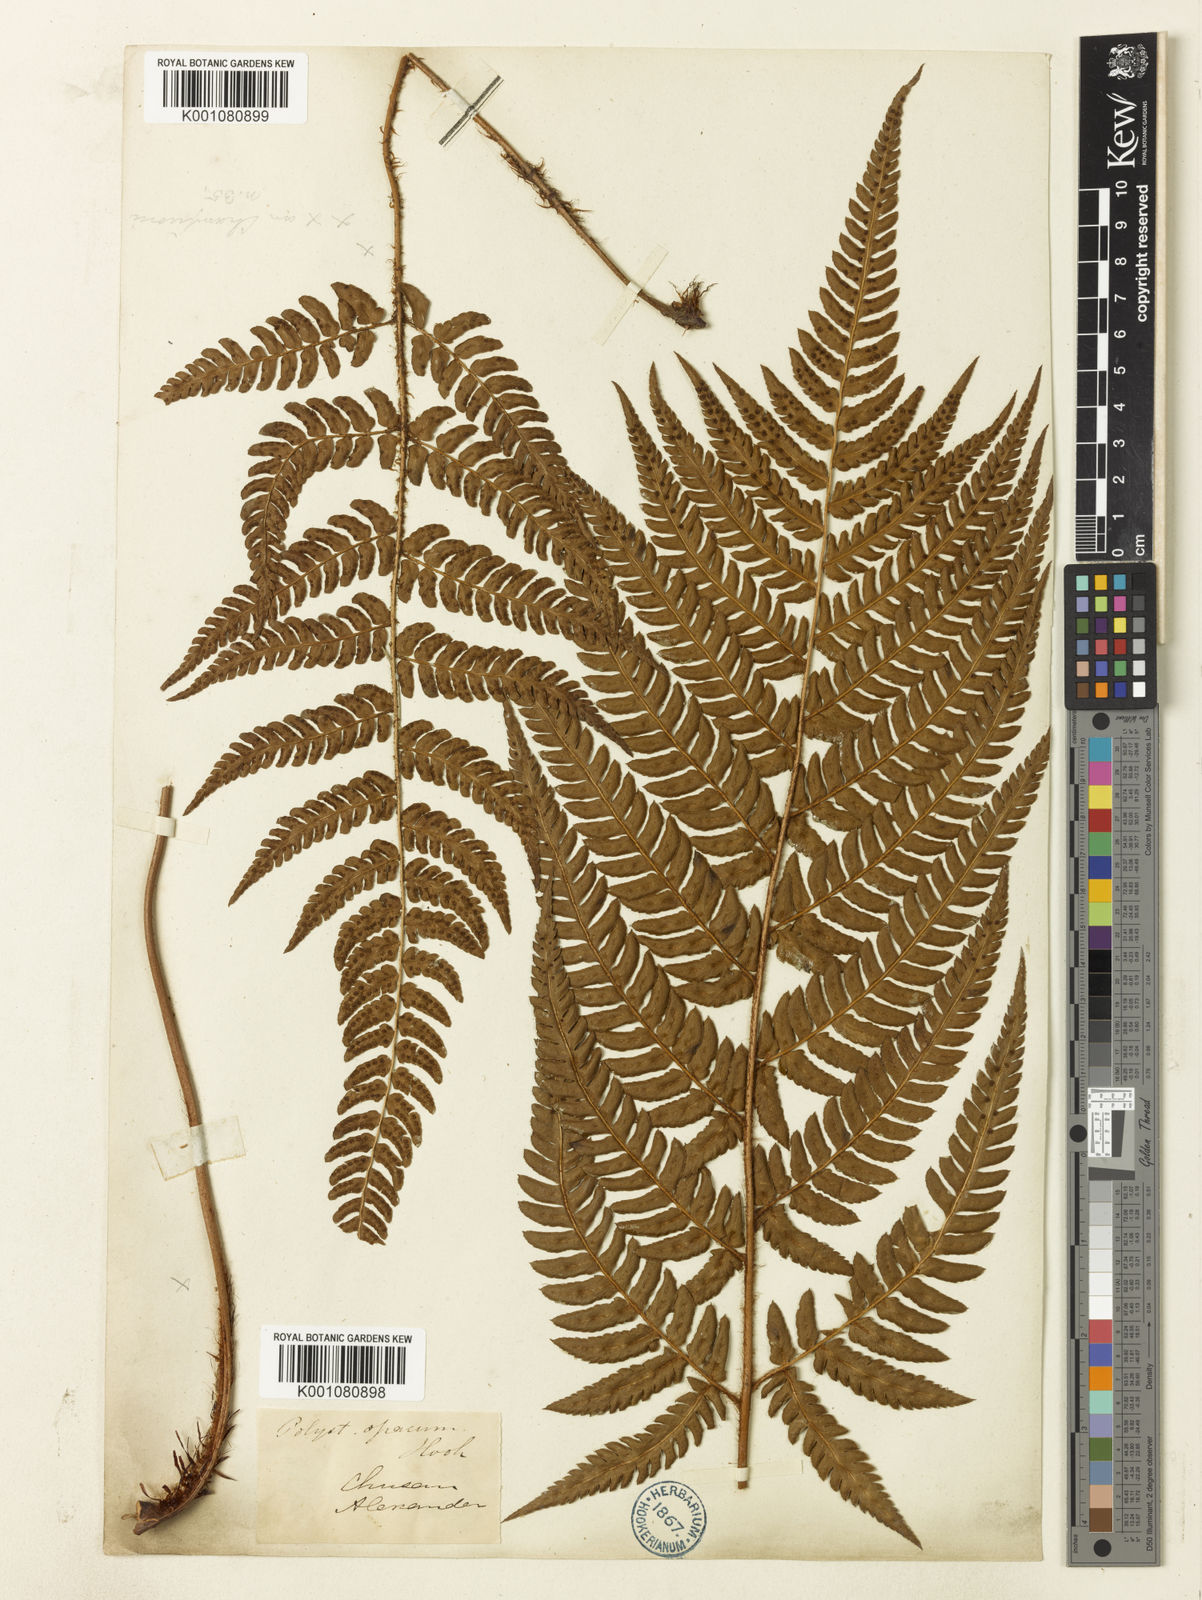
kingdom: Plantae
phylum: Tracheophyta
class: Polypodiopsida
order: Polypodiales
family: Dryopteridaceae
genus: Dryopteris
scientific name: Dryopteris varia
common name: Japanese holly fern
